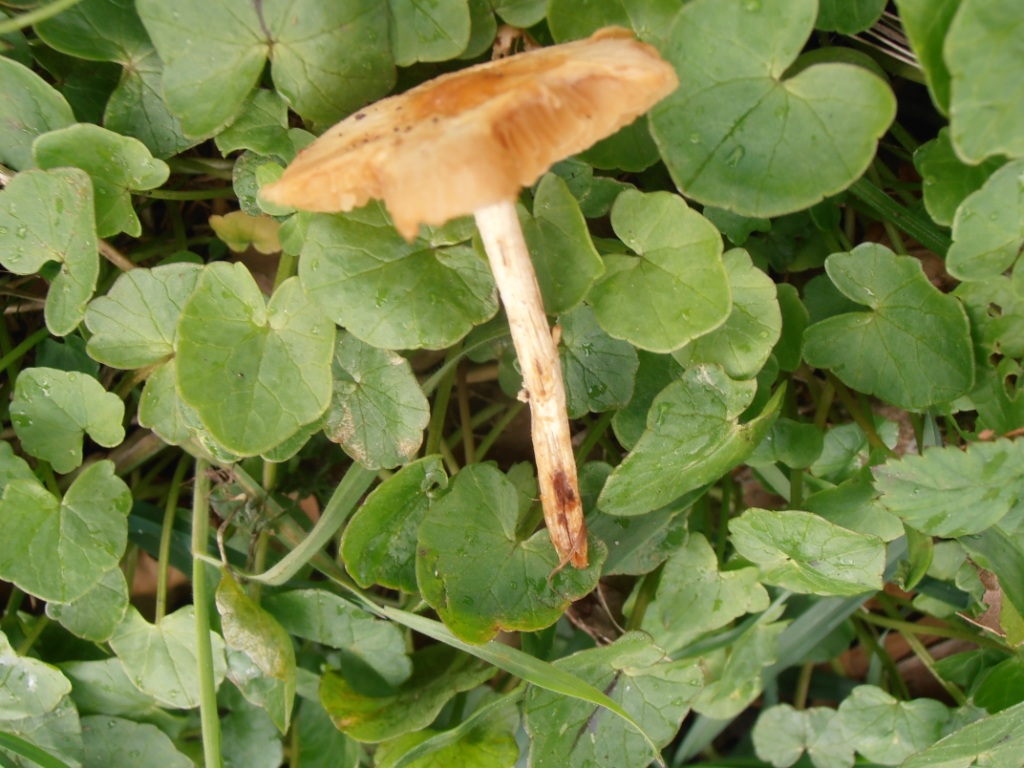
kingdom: Fungi
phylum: Basidiomycota
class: Agaricomycetes
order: Agaricales
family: Bolbitiaceae
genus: Conocybe
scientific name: Conocybe aporos
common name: tidlig dansehat
